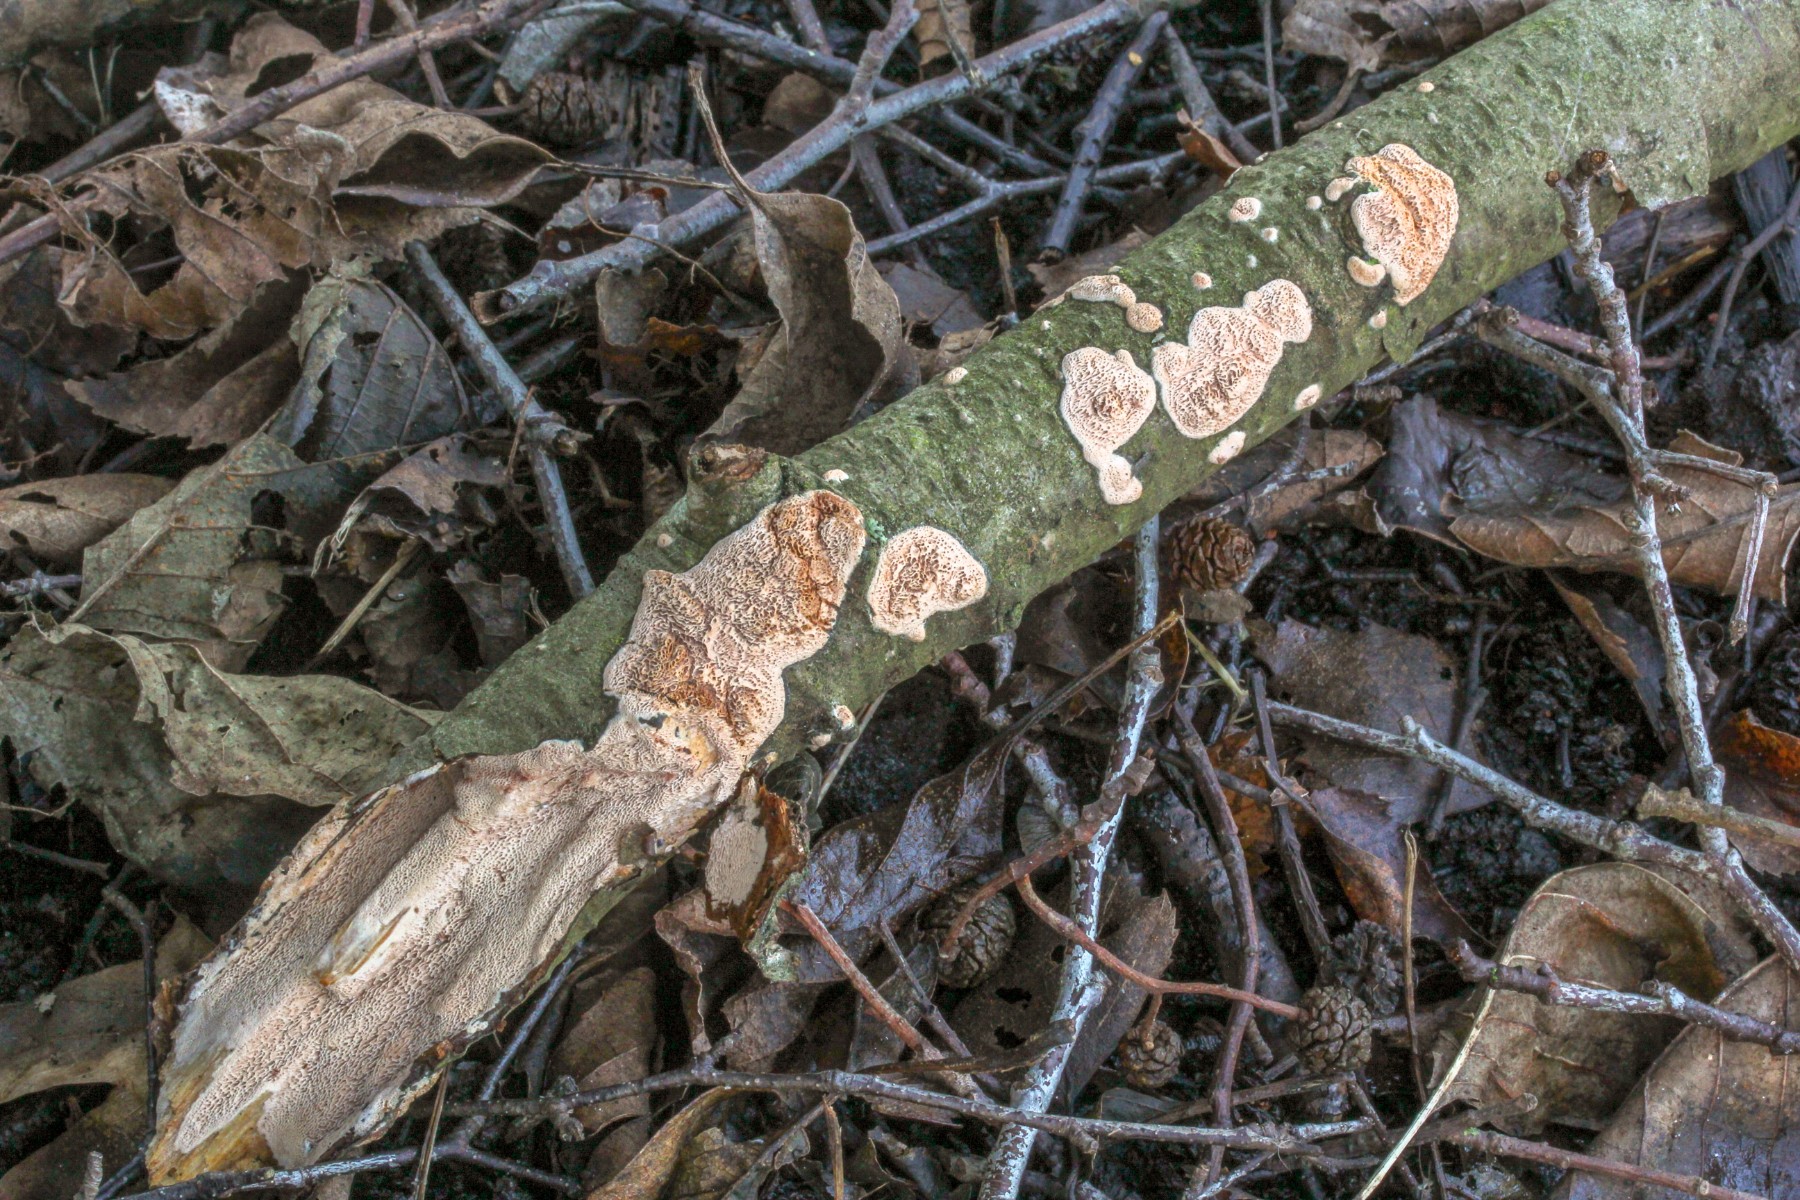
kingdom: Fungi
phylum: Basidiomycota
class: Agaricomycetes
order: Polyporales
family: Irpicaceae
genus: Ceriporia
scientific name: Ceriporia purpurea
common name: purpur-voksporesvamp
